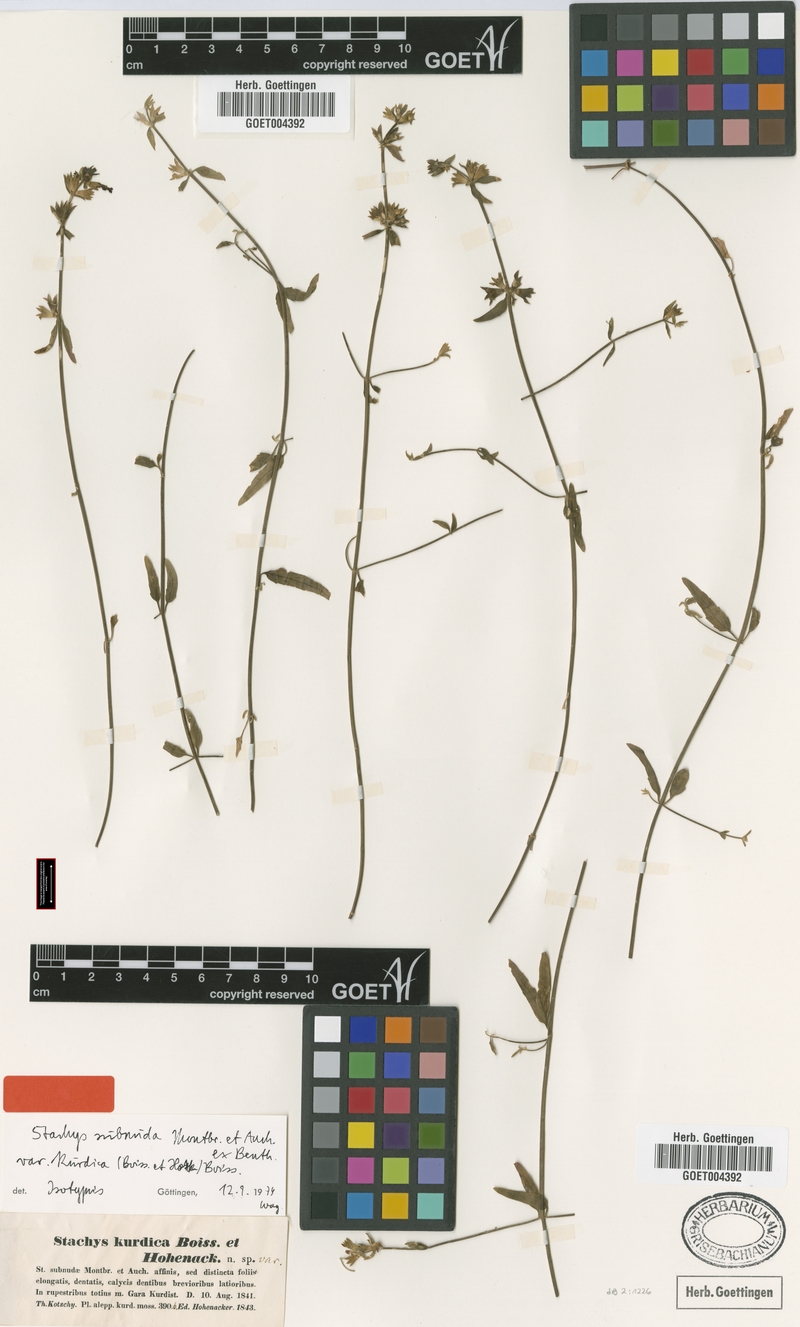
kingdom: Plantae
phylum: Tracheophyta
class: Magnoliopsida
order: Lamiales
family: Lamiaceae
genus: Stachys
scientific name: Stachys subnuda
